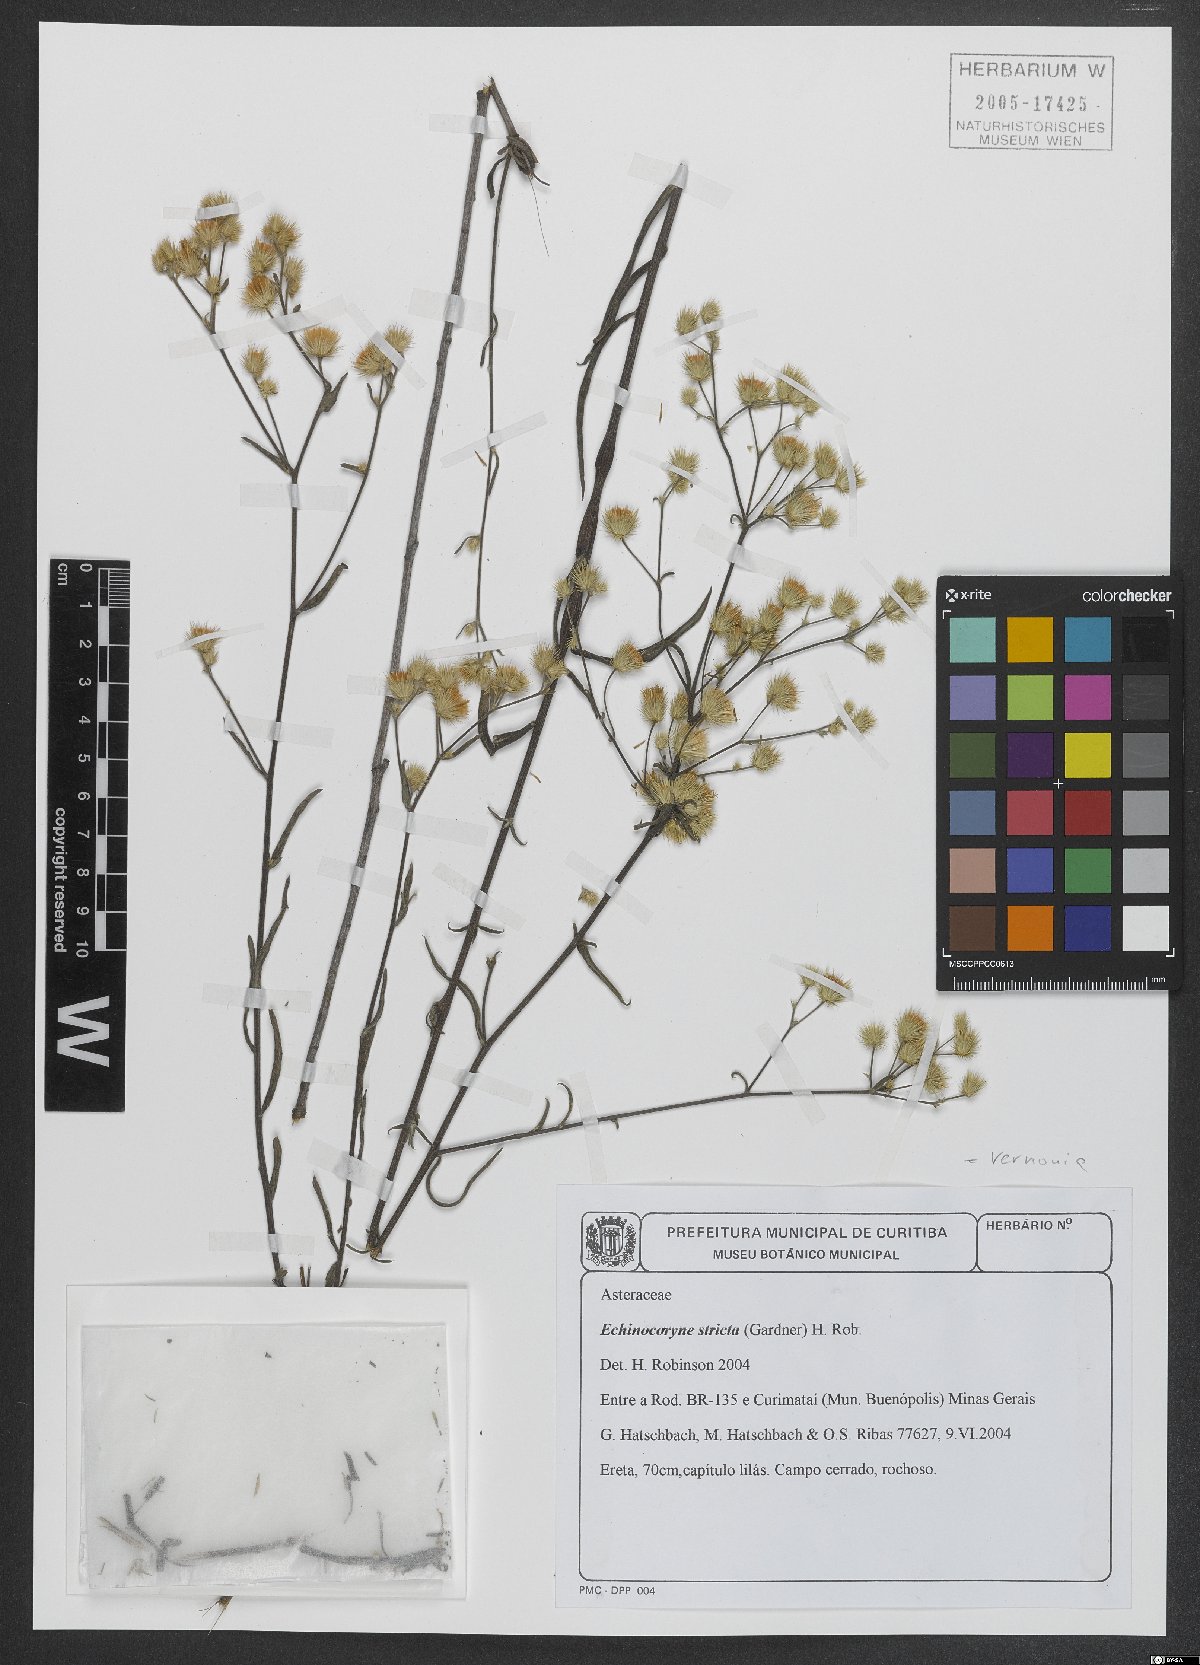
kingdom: Plantae
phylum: Tracheophyta
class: Magnoliopsida
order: Asterales
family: Asteraceae
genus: Echinocoryne
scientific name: Echinocoryne stricta
